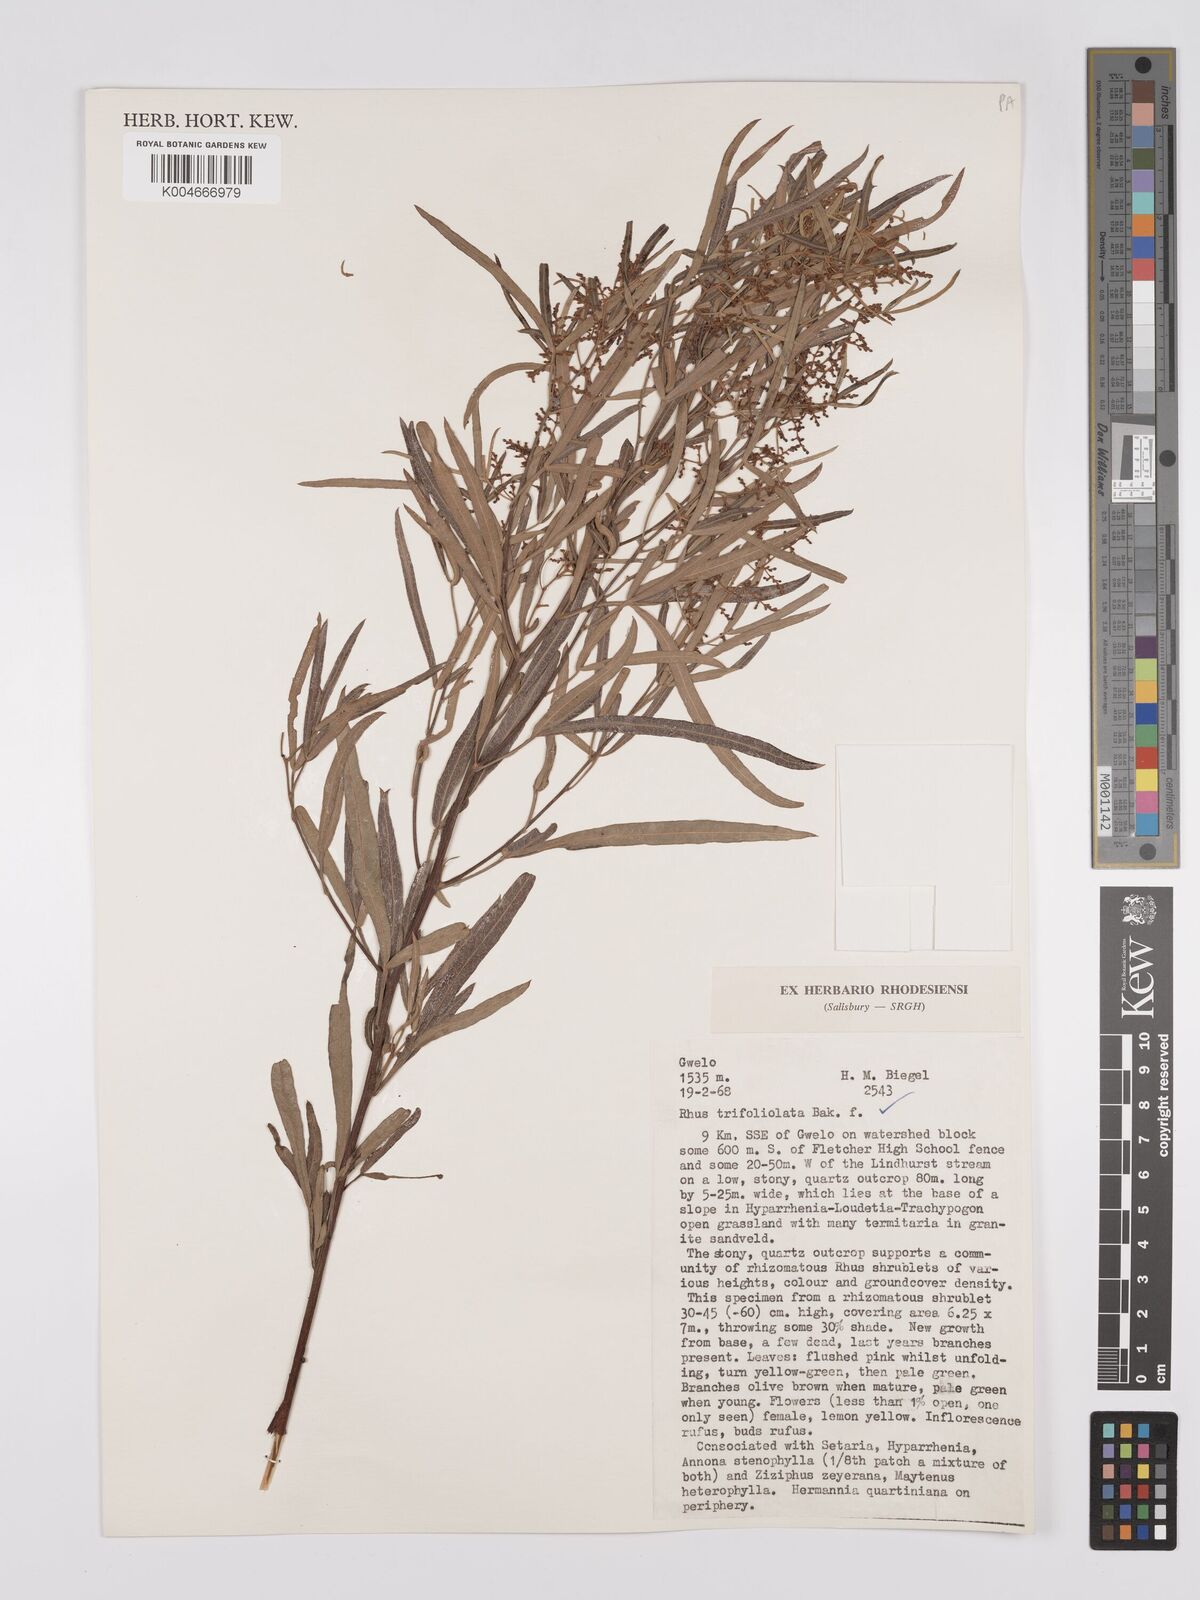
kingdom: Plantae
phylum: Tracheophyta
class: Magnoliopsida
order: Sapindales
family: Anacardiaceae
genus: Searsia
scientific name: Searsia magalismontana
